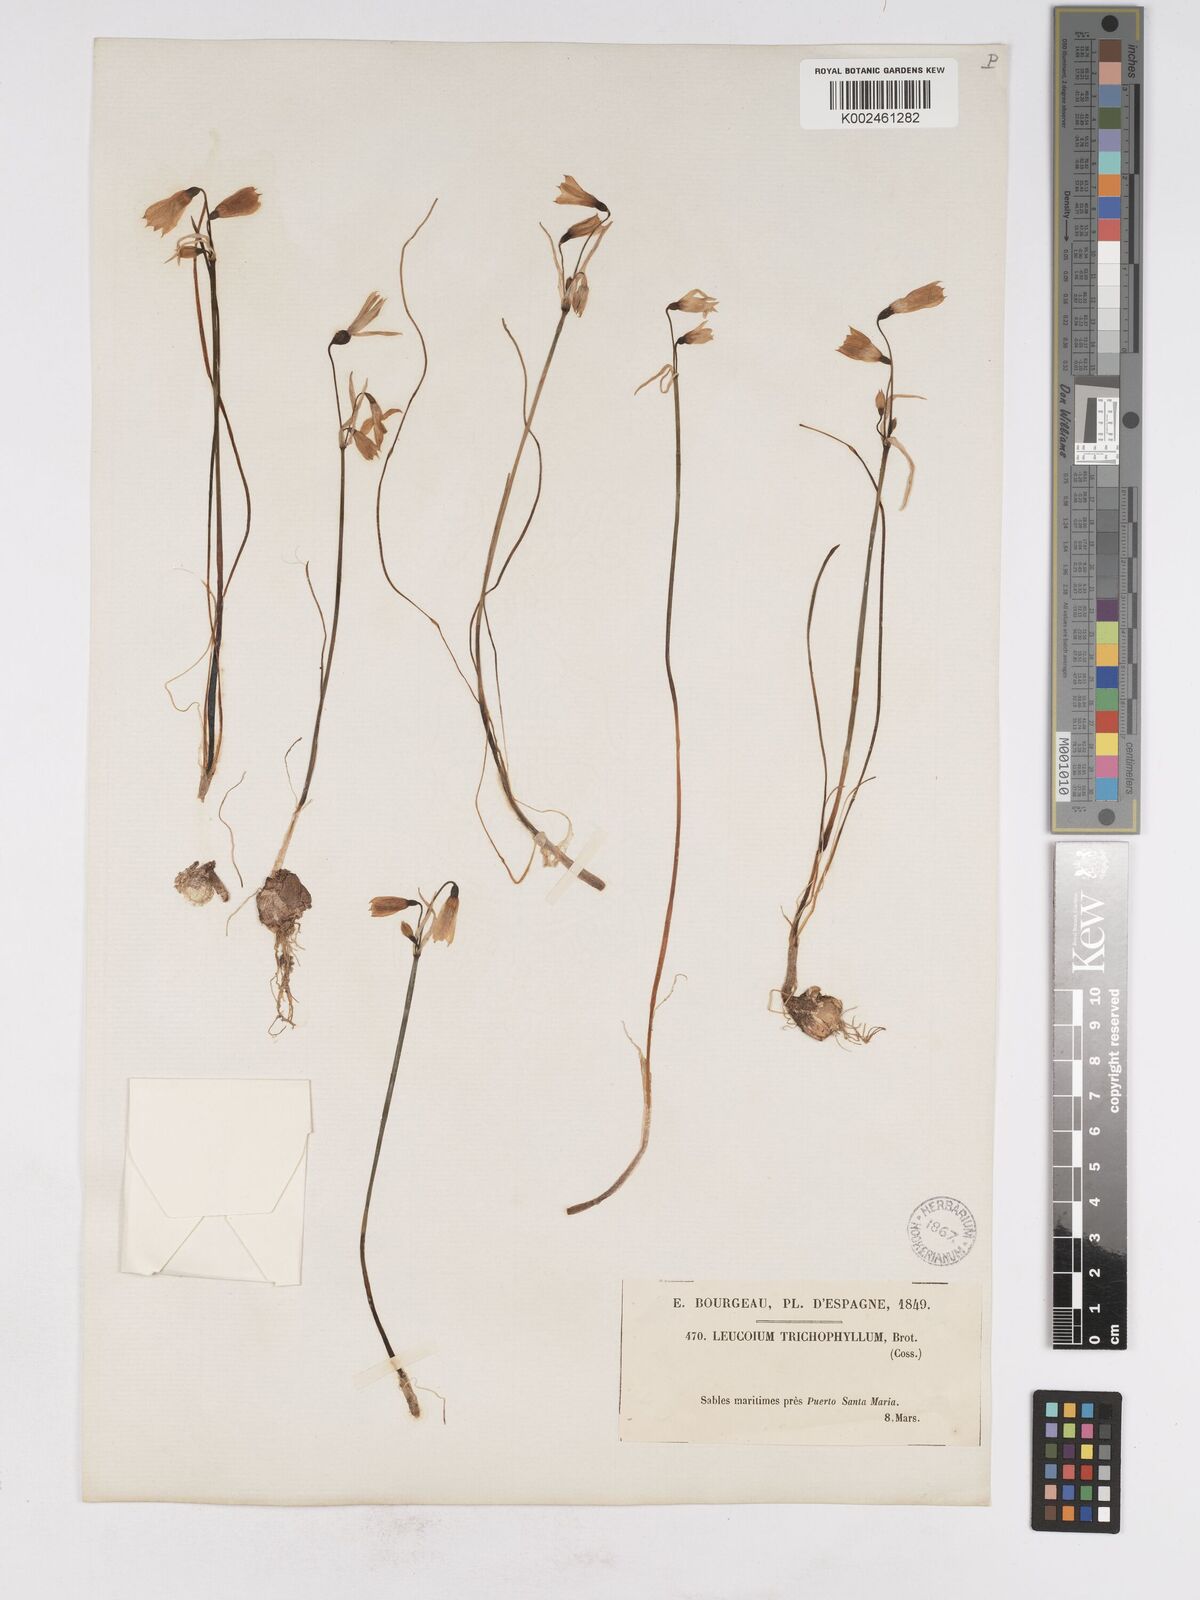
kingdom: Plantae
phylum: Tracheophyta
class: Liliopsida
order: Asparagales
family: Amaryllidaceae
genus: Acis
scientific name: Acis trichophylla
